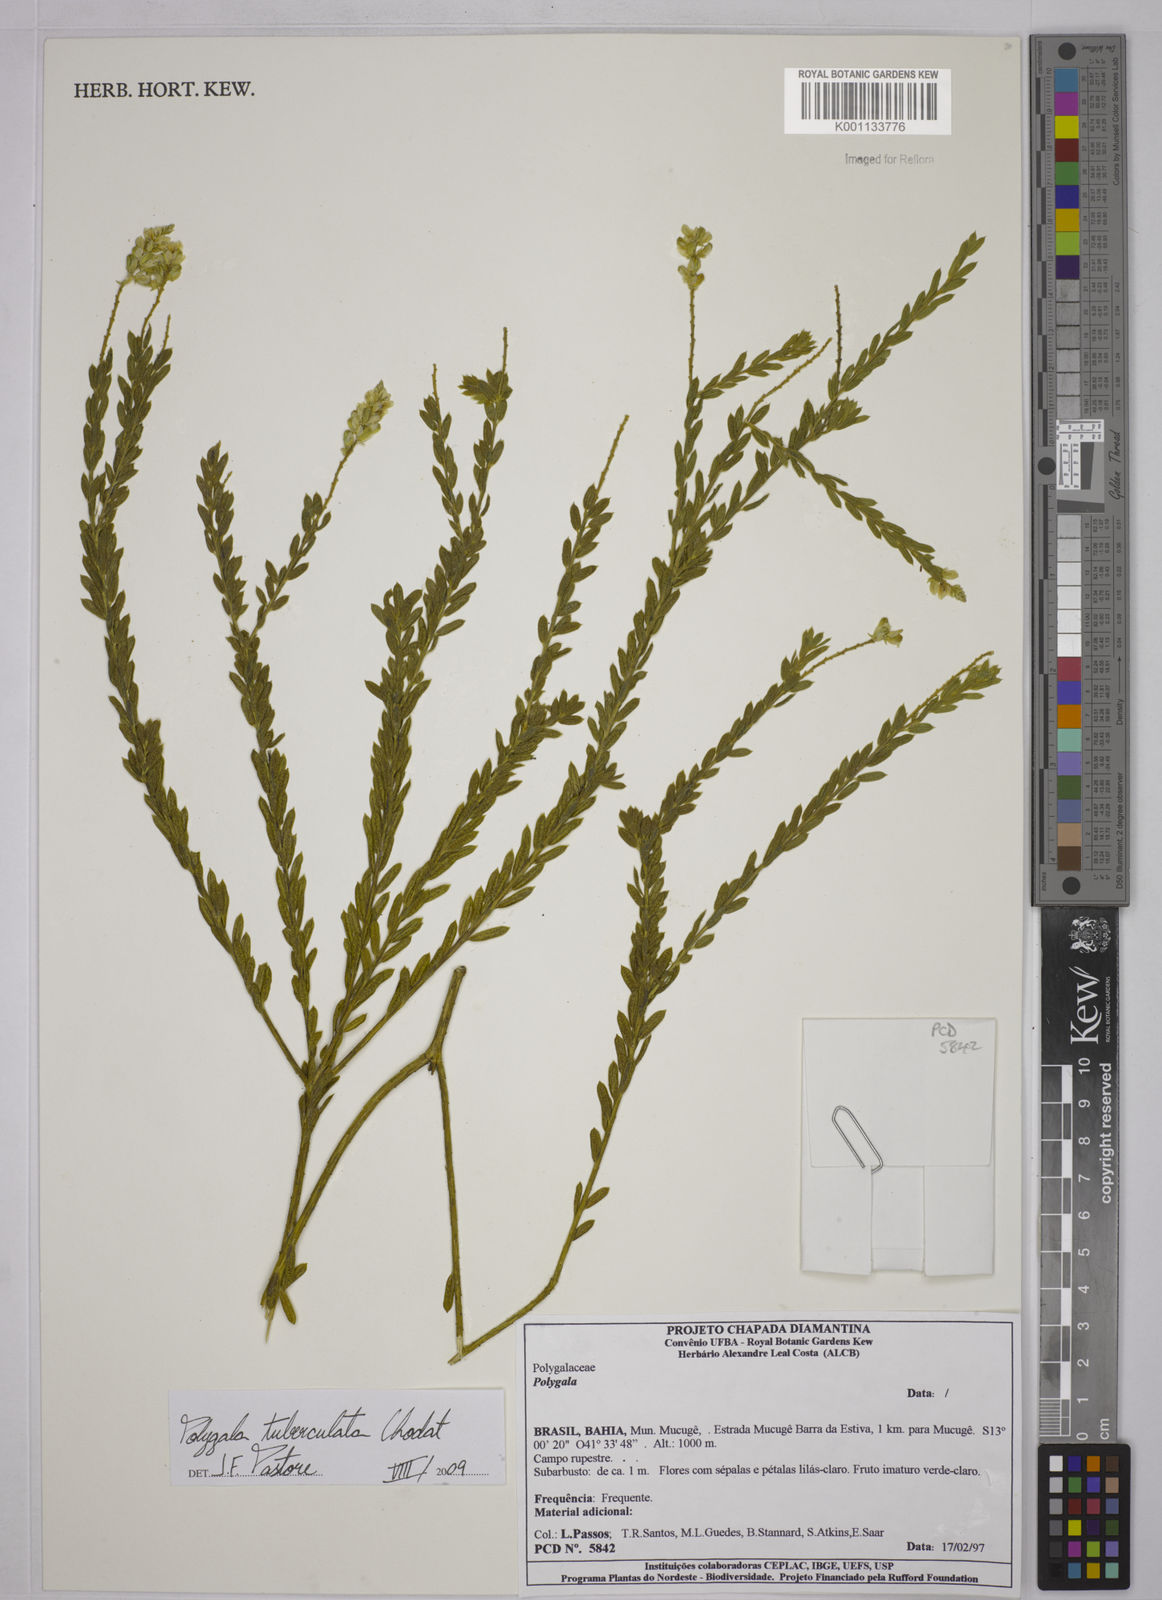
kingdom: Plantae
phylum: Tracheophyta
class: Magnoliopsida
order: Fabales
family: Polygalaceae
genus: Polygala
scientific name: Polygala tuberculata
